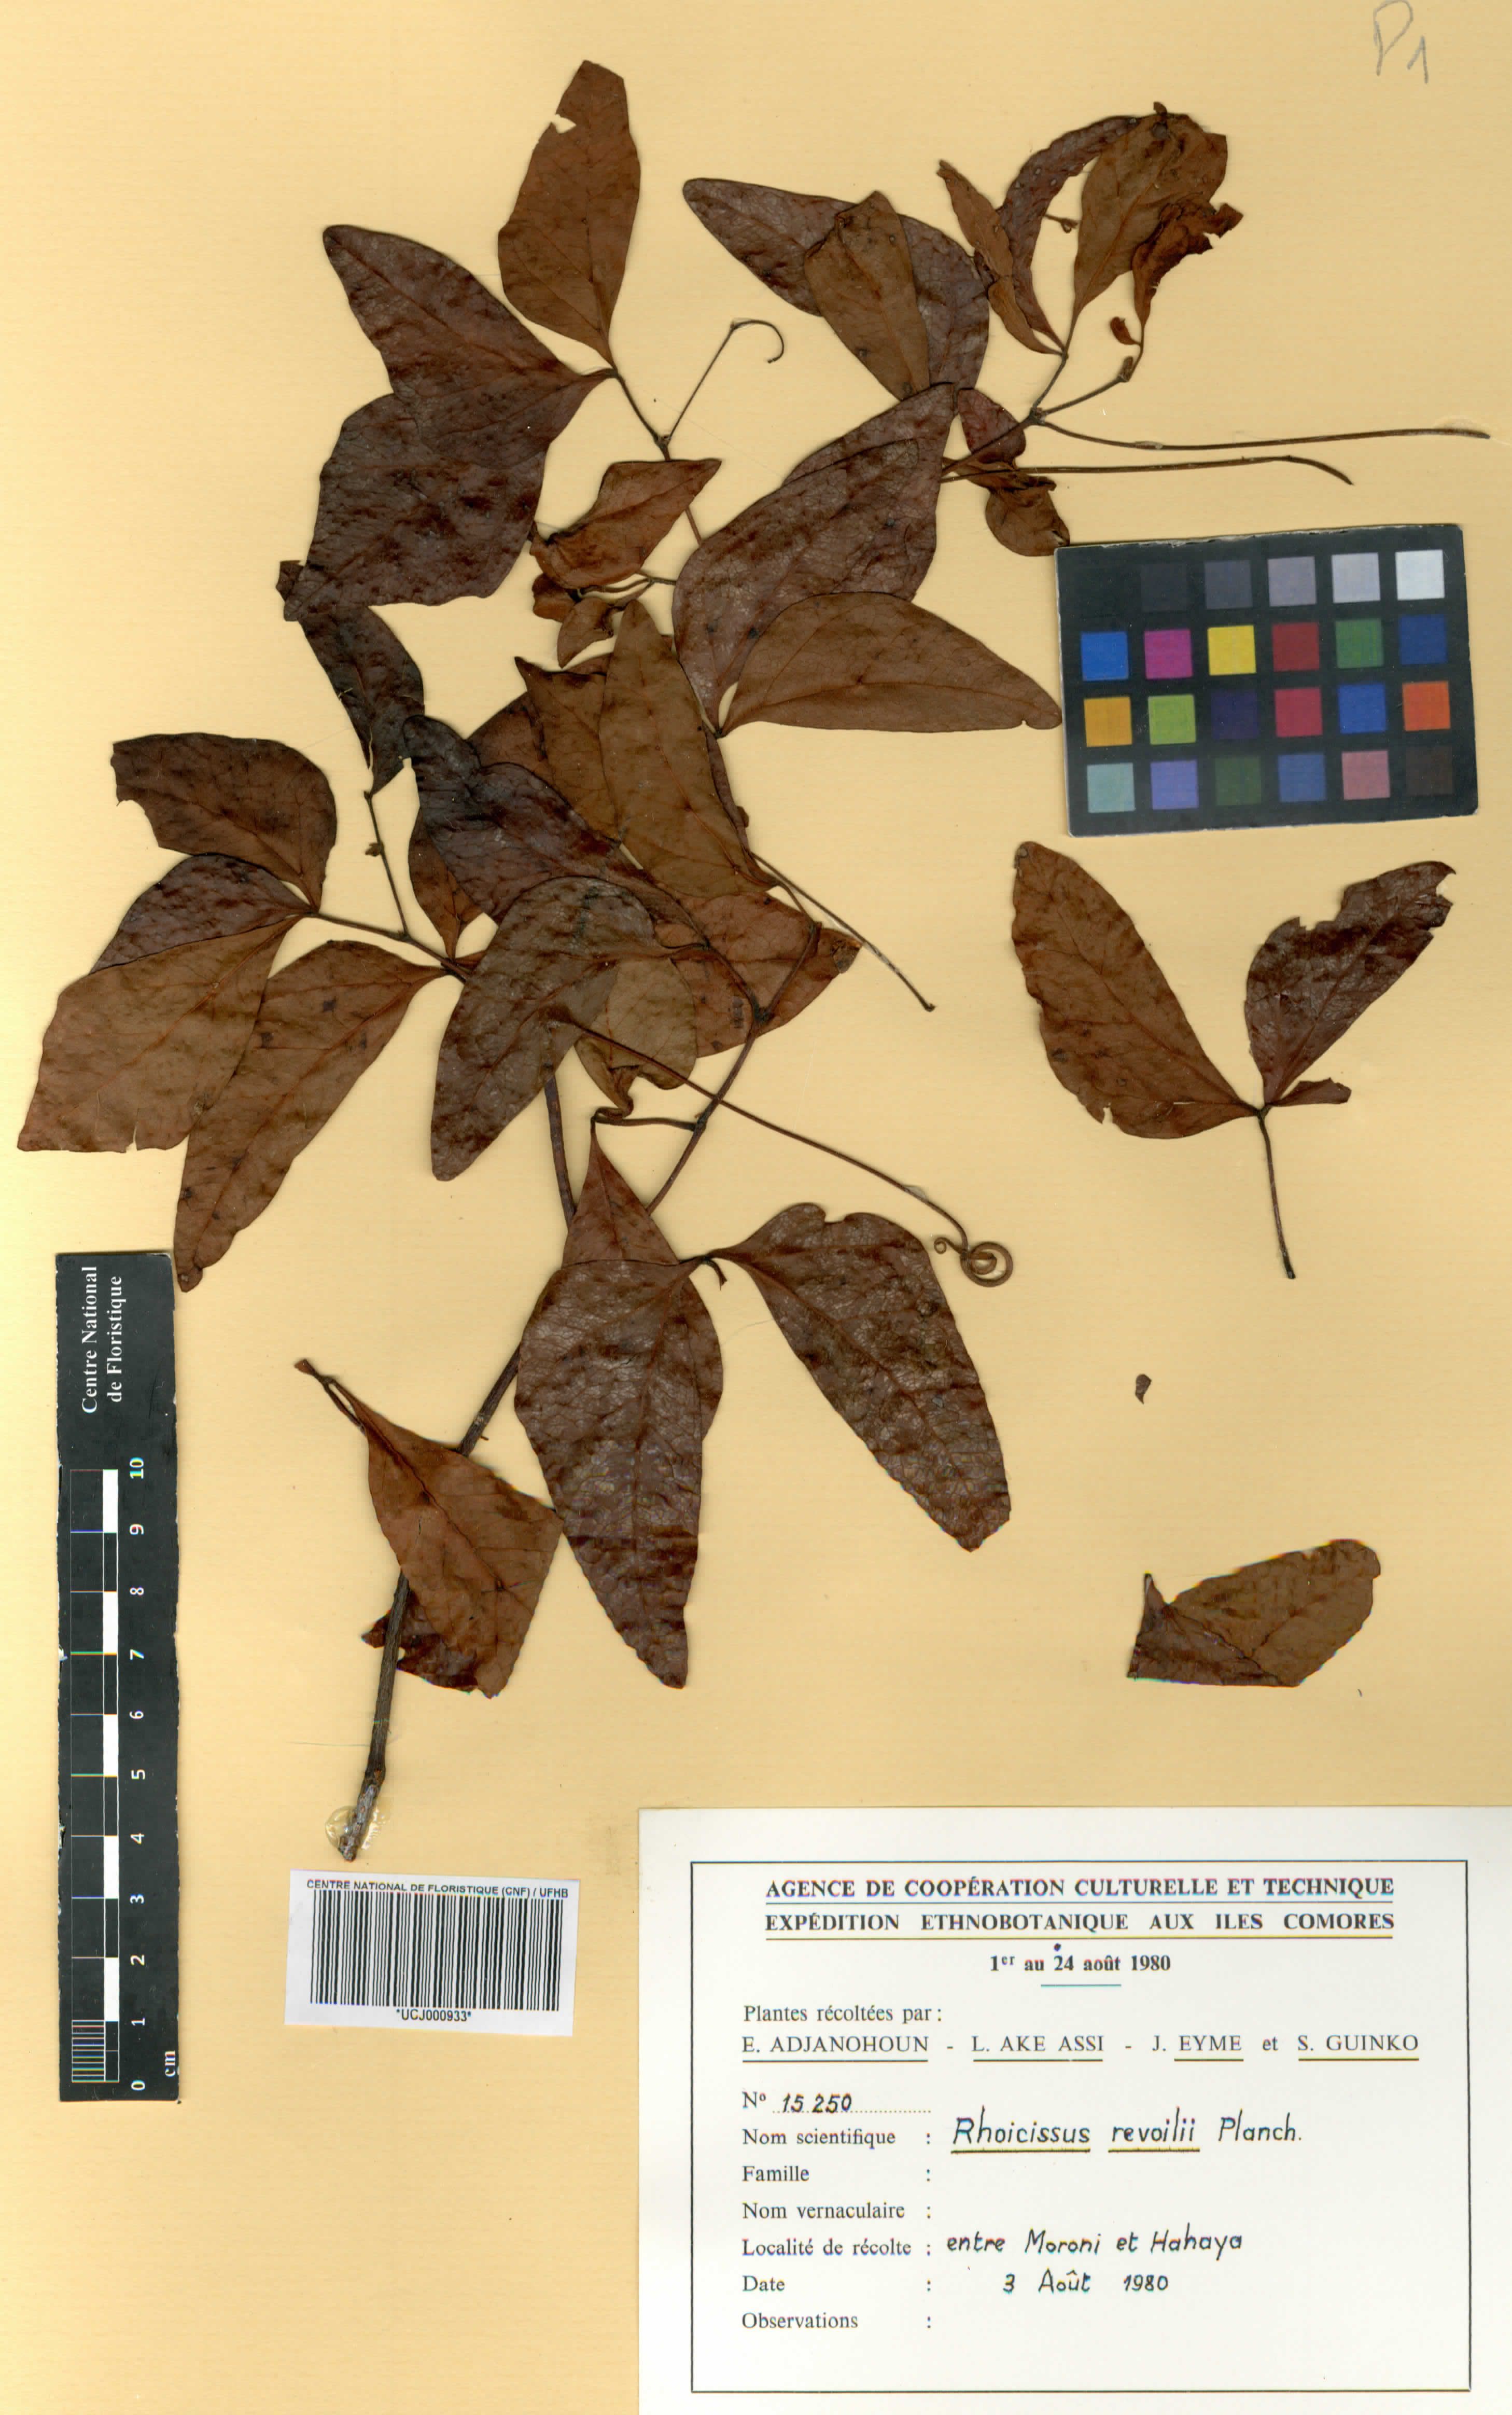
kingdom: Plantae
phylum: Tracheophyta
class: Magnoliopsida
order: Vitales
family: Vitaceae
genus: Rhoicissus
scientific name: Rhoicissus revoilii
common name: Bushveld grape
